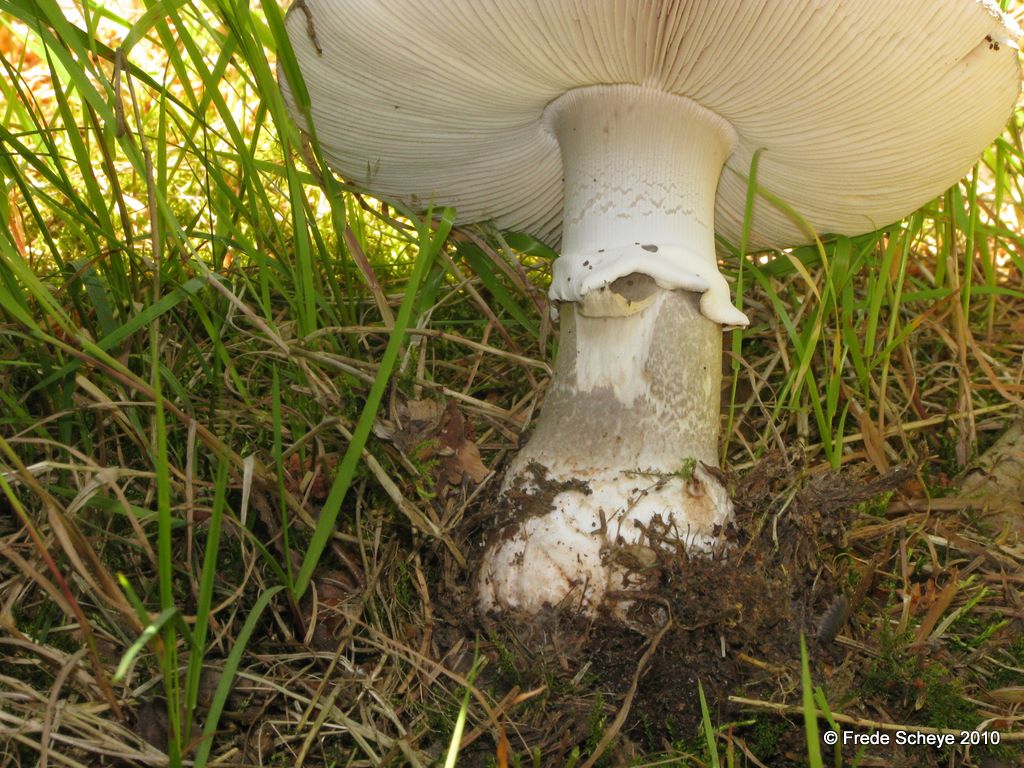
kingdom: Fungi
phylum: Basidiomycota
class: Agaricomycetes
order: Agaricales
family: Amanitaceae
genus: Amanita
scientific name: Amanita
